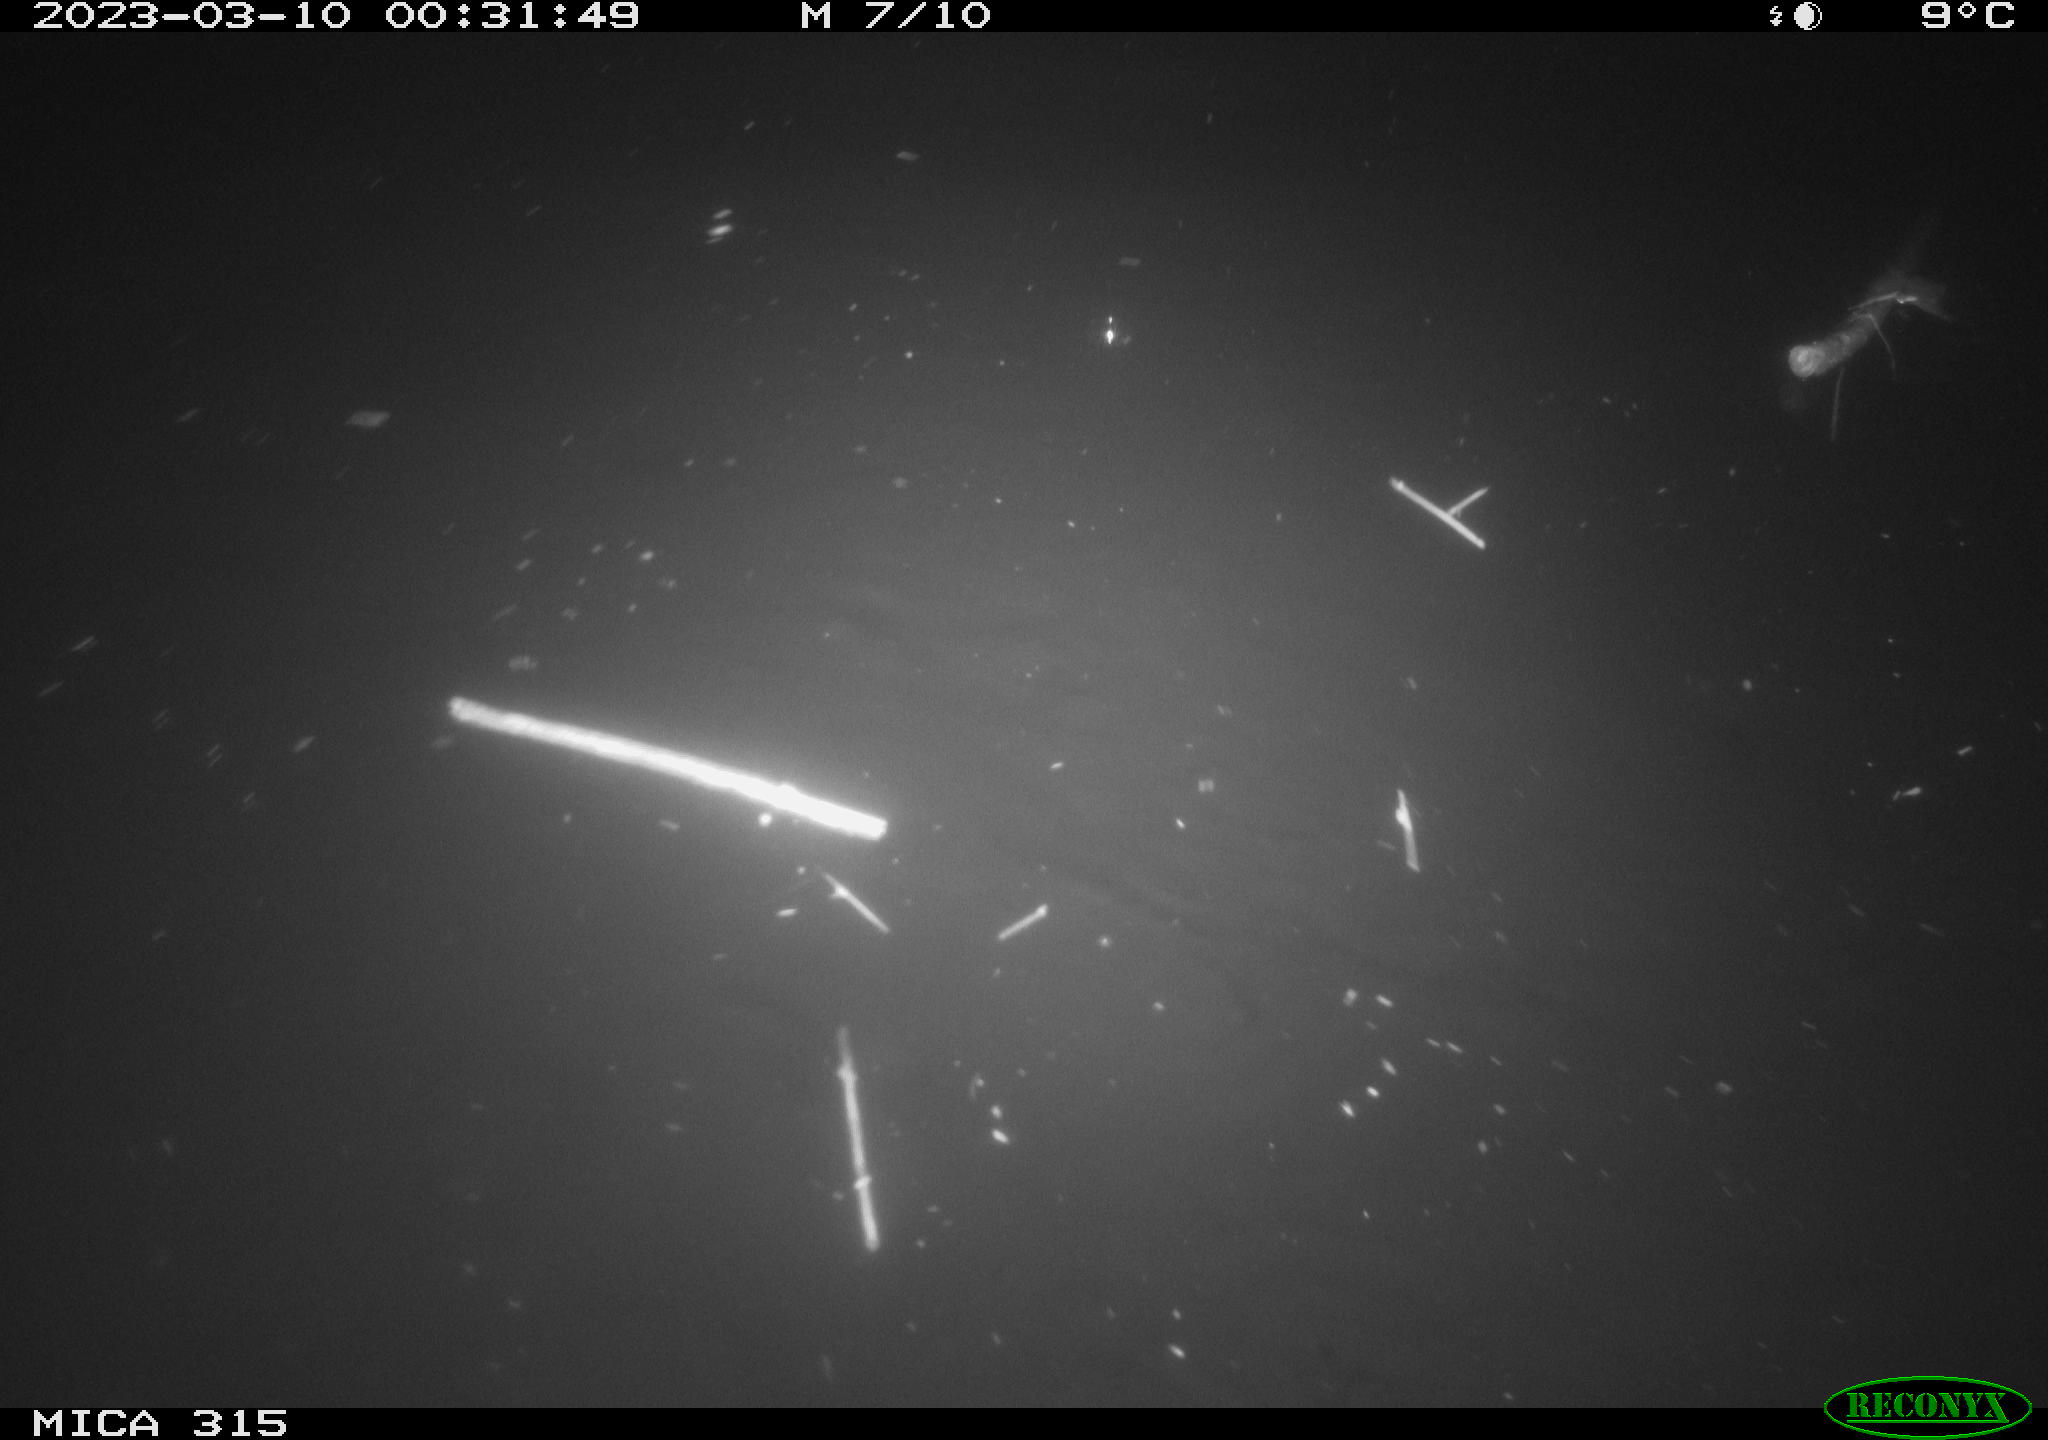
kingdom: Animalia
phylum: Chordata
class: Aves
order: Anseriformes
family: Anatidae
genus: Anas
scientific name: Anas
